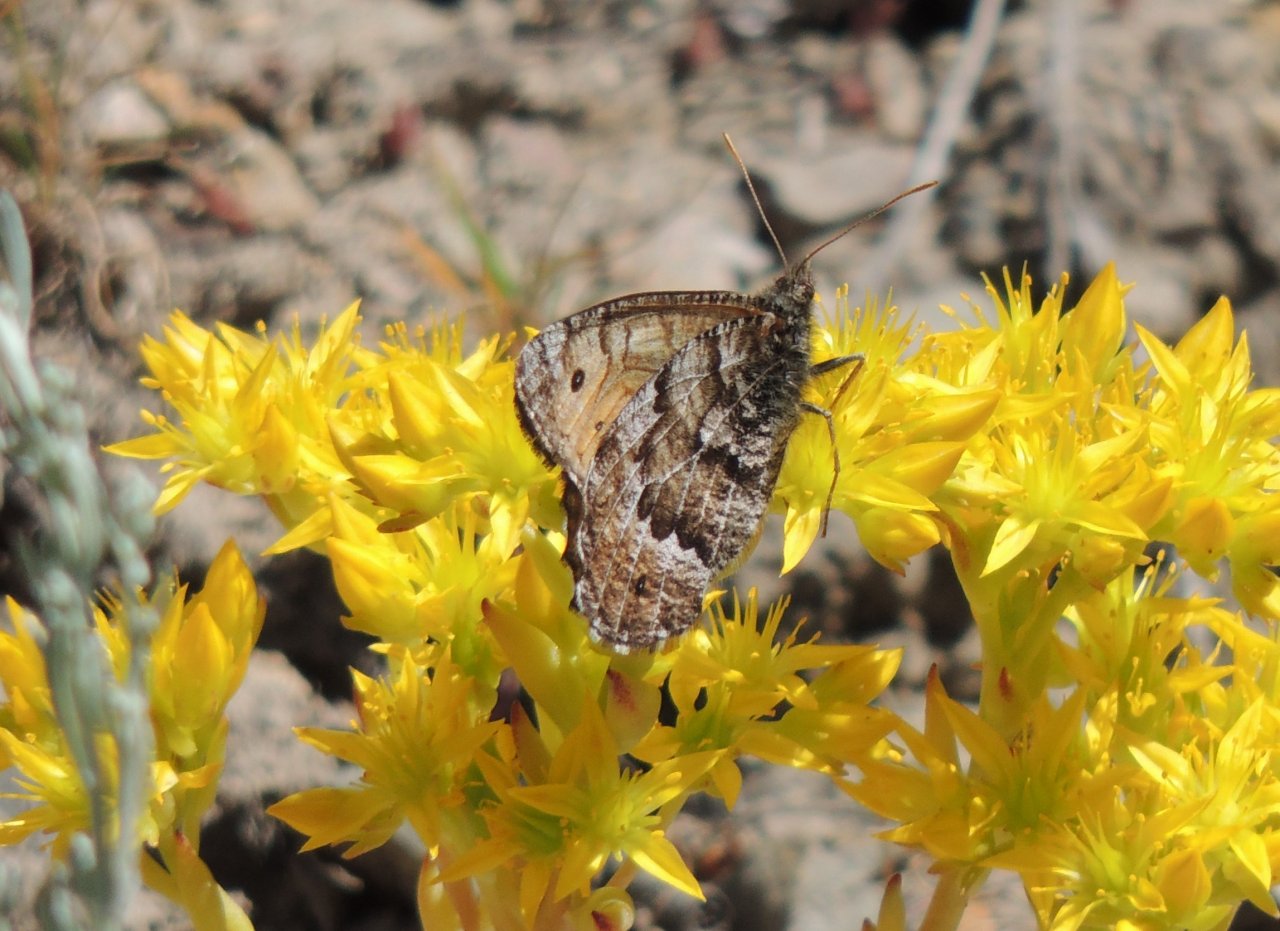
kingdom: Animalia
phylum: Arthropoda
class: Insecta
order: Lepidoptera
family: Nymphalidae
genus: Oeneis
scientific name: Oeneis chryxus
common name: Chryxus Arctic
